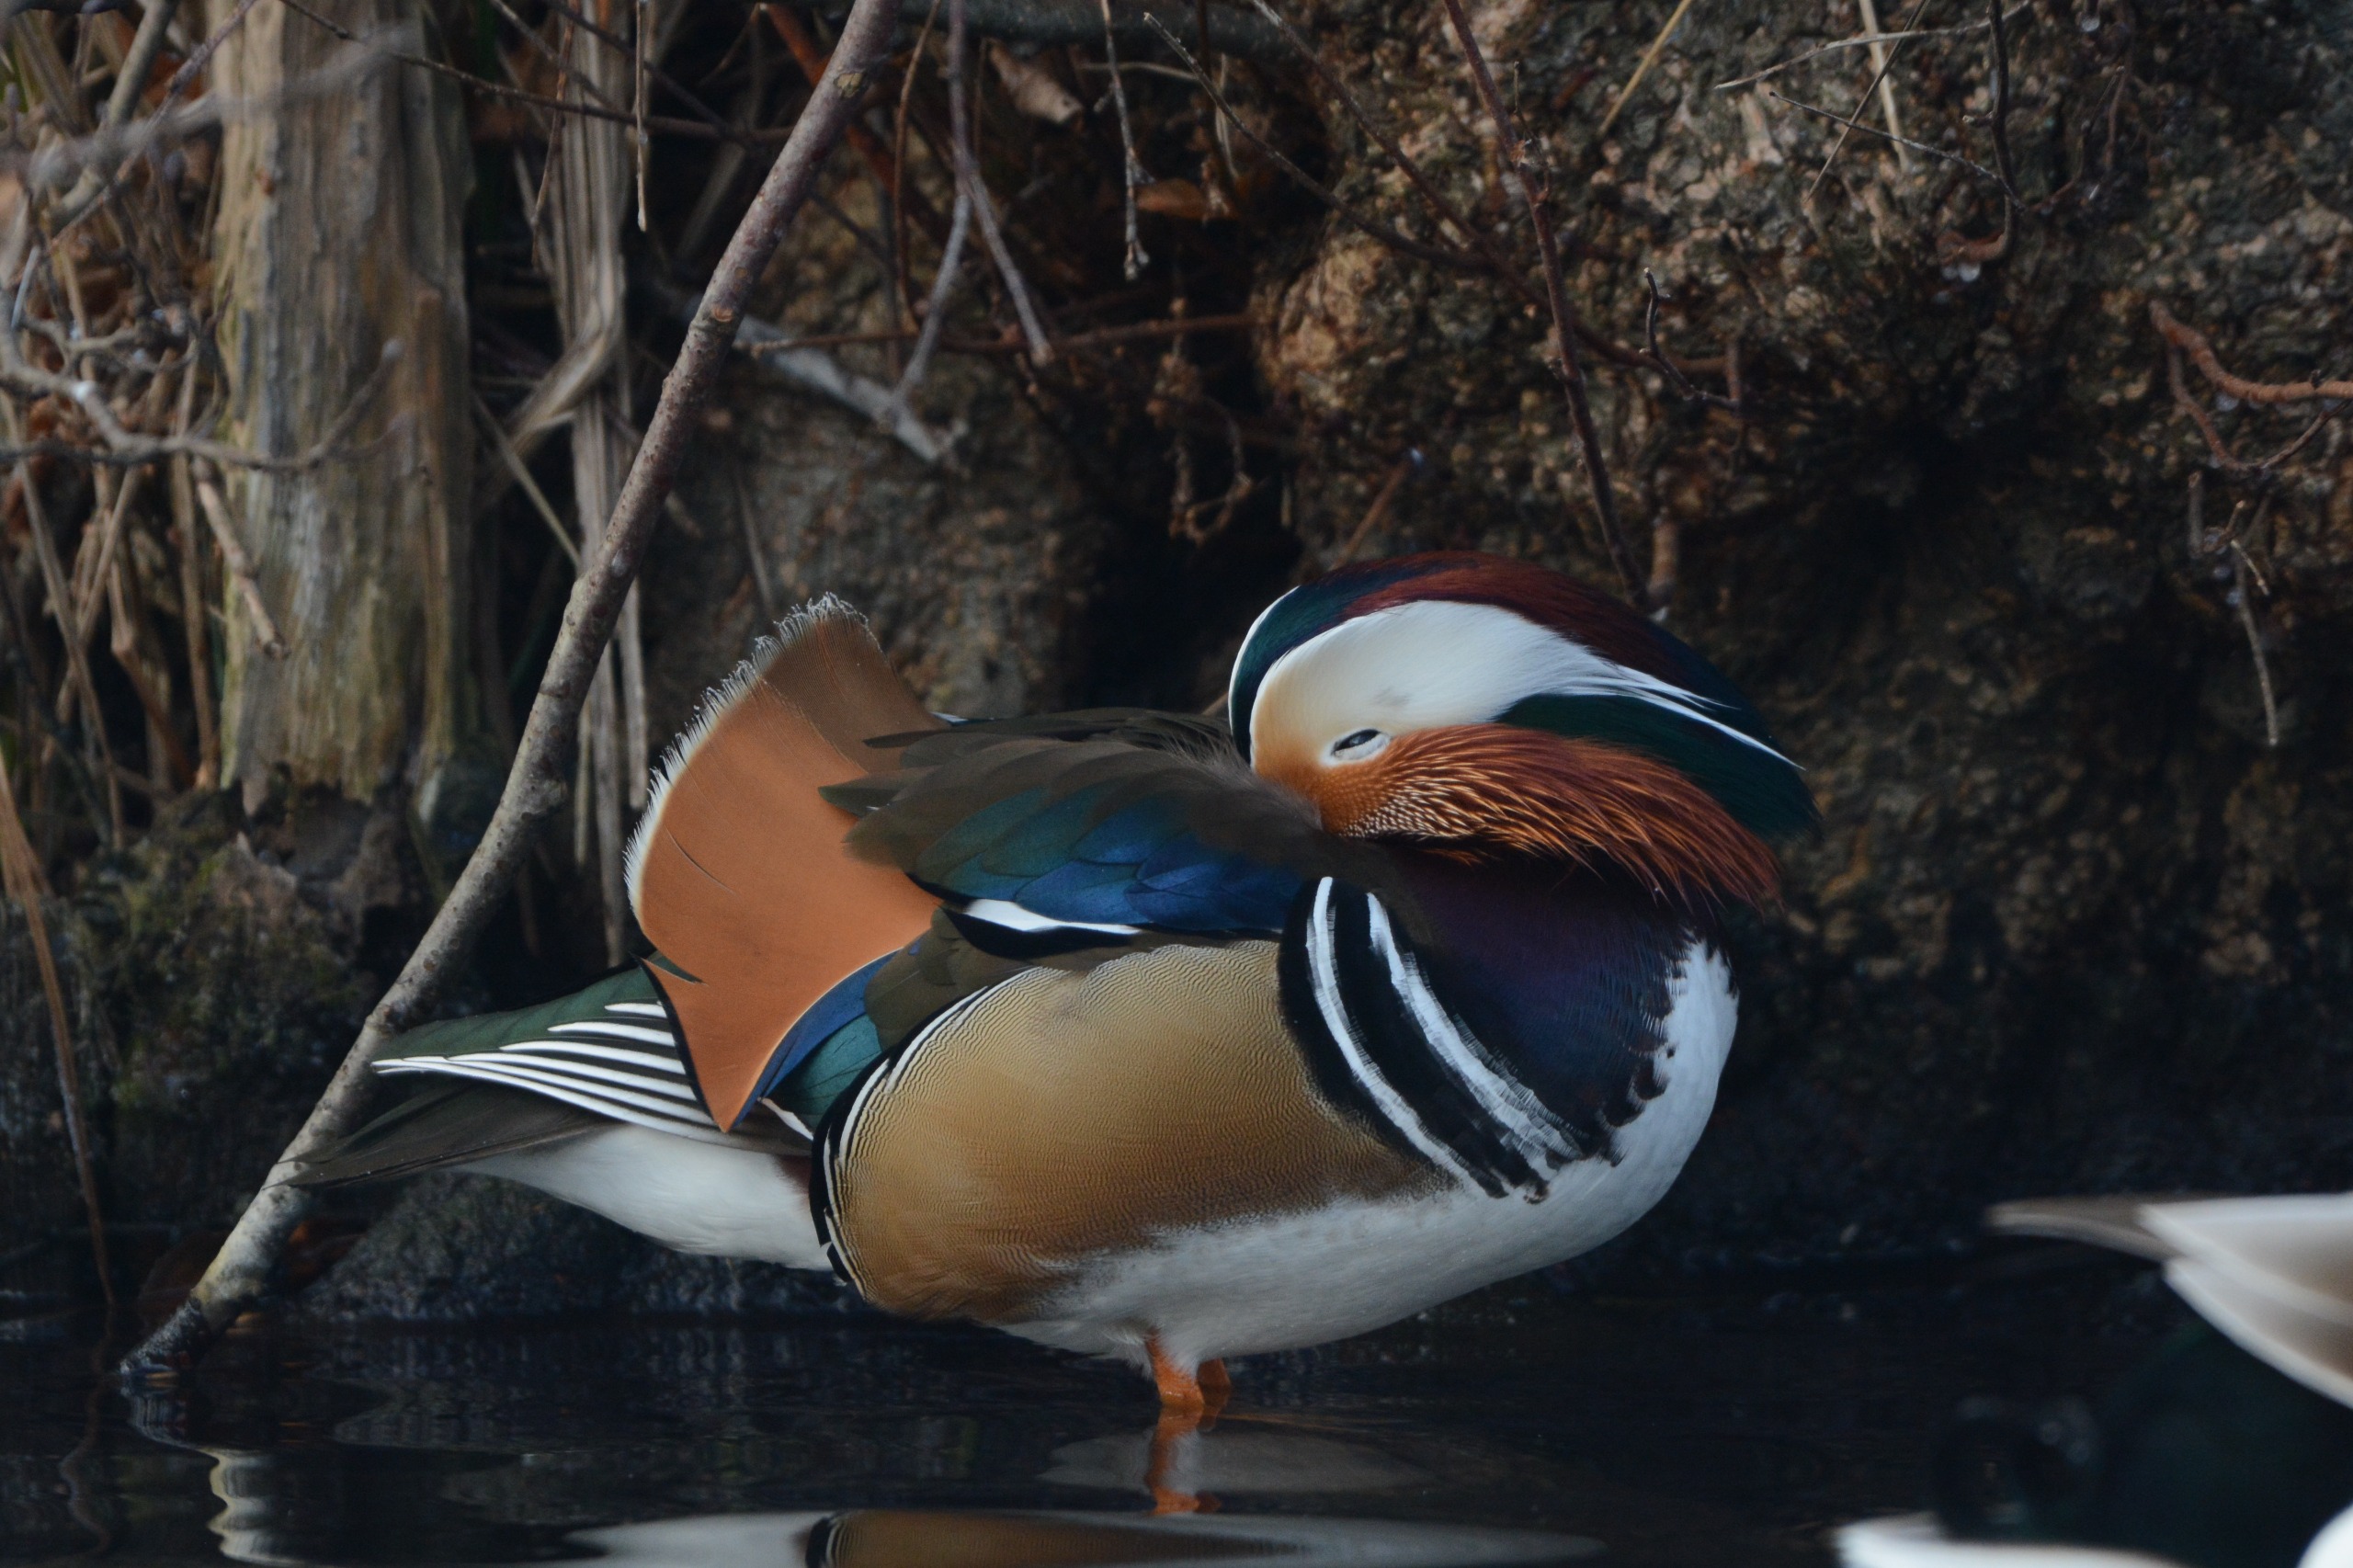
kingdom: Animalia
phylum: Chordata
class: Aves
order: Anseriformes
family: Anatidae
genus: Aix
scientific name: Aix galericulata
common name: Mandarinand
